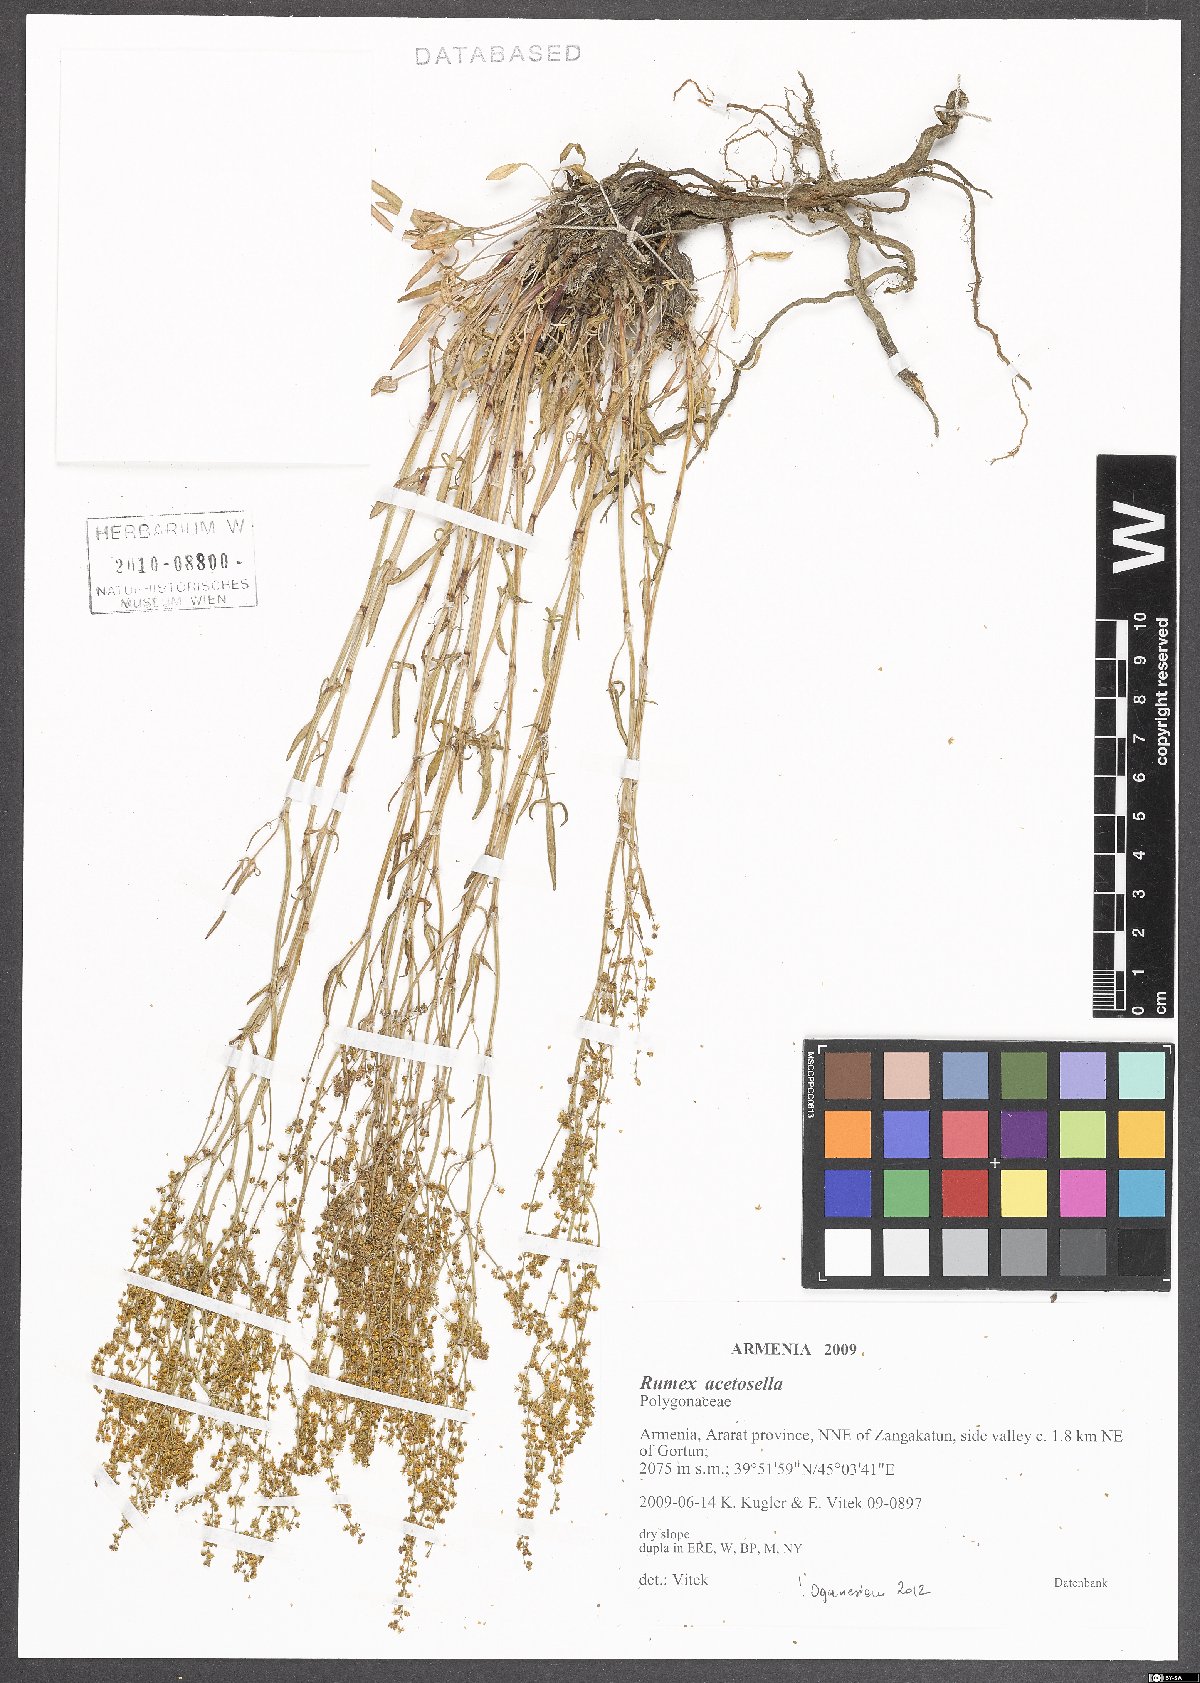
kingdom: Plantae
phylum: Tracheophyta
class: Magnoliopsida
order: Caryophyllales
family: Polygonaceae
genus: Rumex
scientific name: Rumex acetosella
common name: Common sheep sorrel
